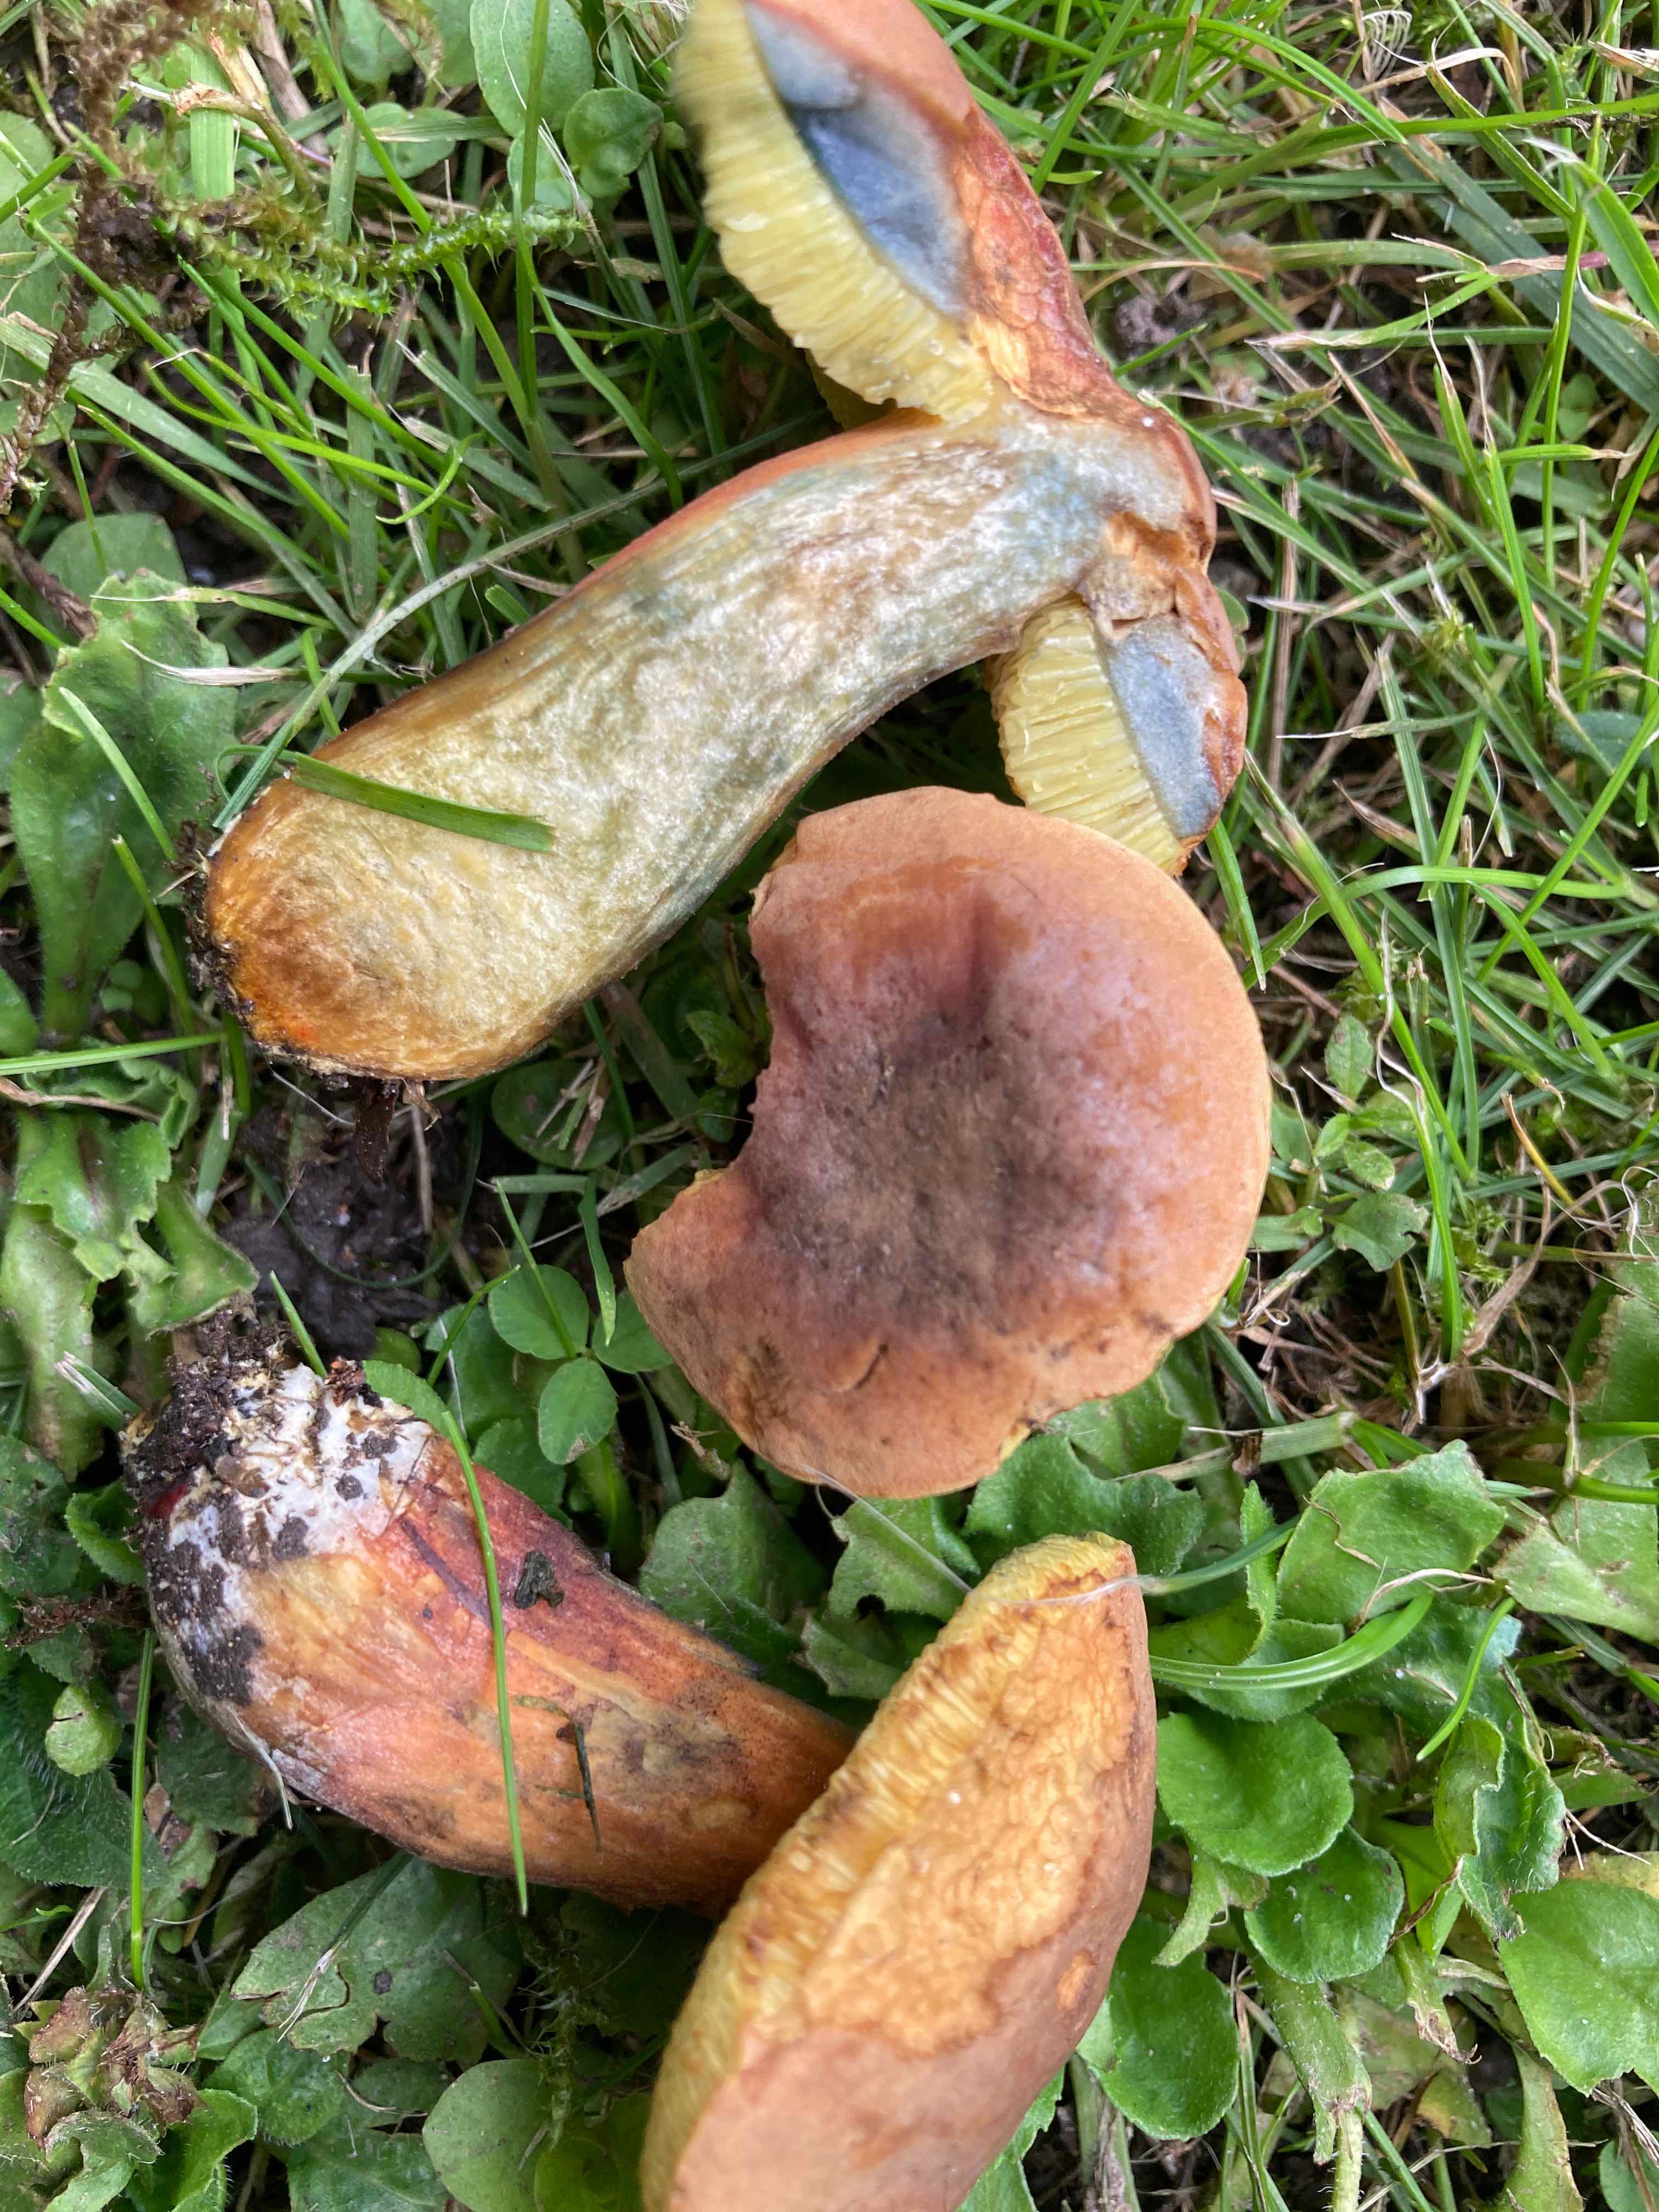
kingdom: Fungi
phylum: Basidiomycota
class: Agaricomycetes
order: Boletales
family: Boletaceae
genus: Hortiboletus
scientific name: Hortiboletus bubalinus
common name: aurora-rørhat
